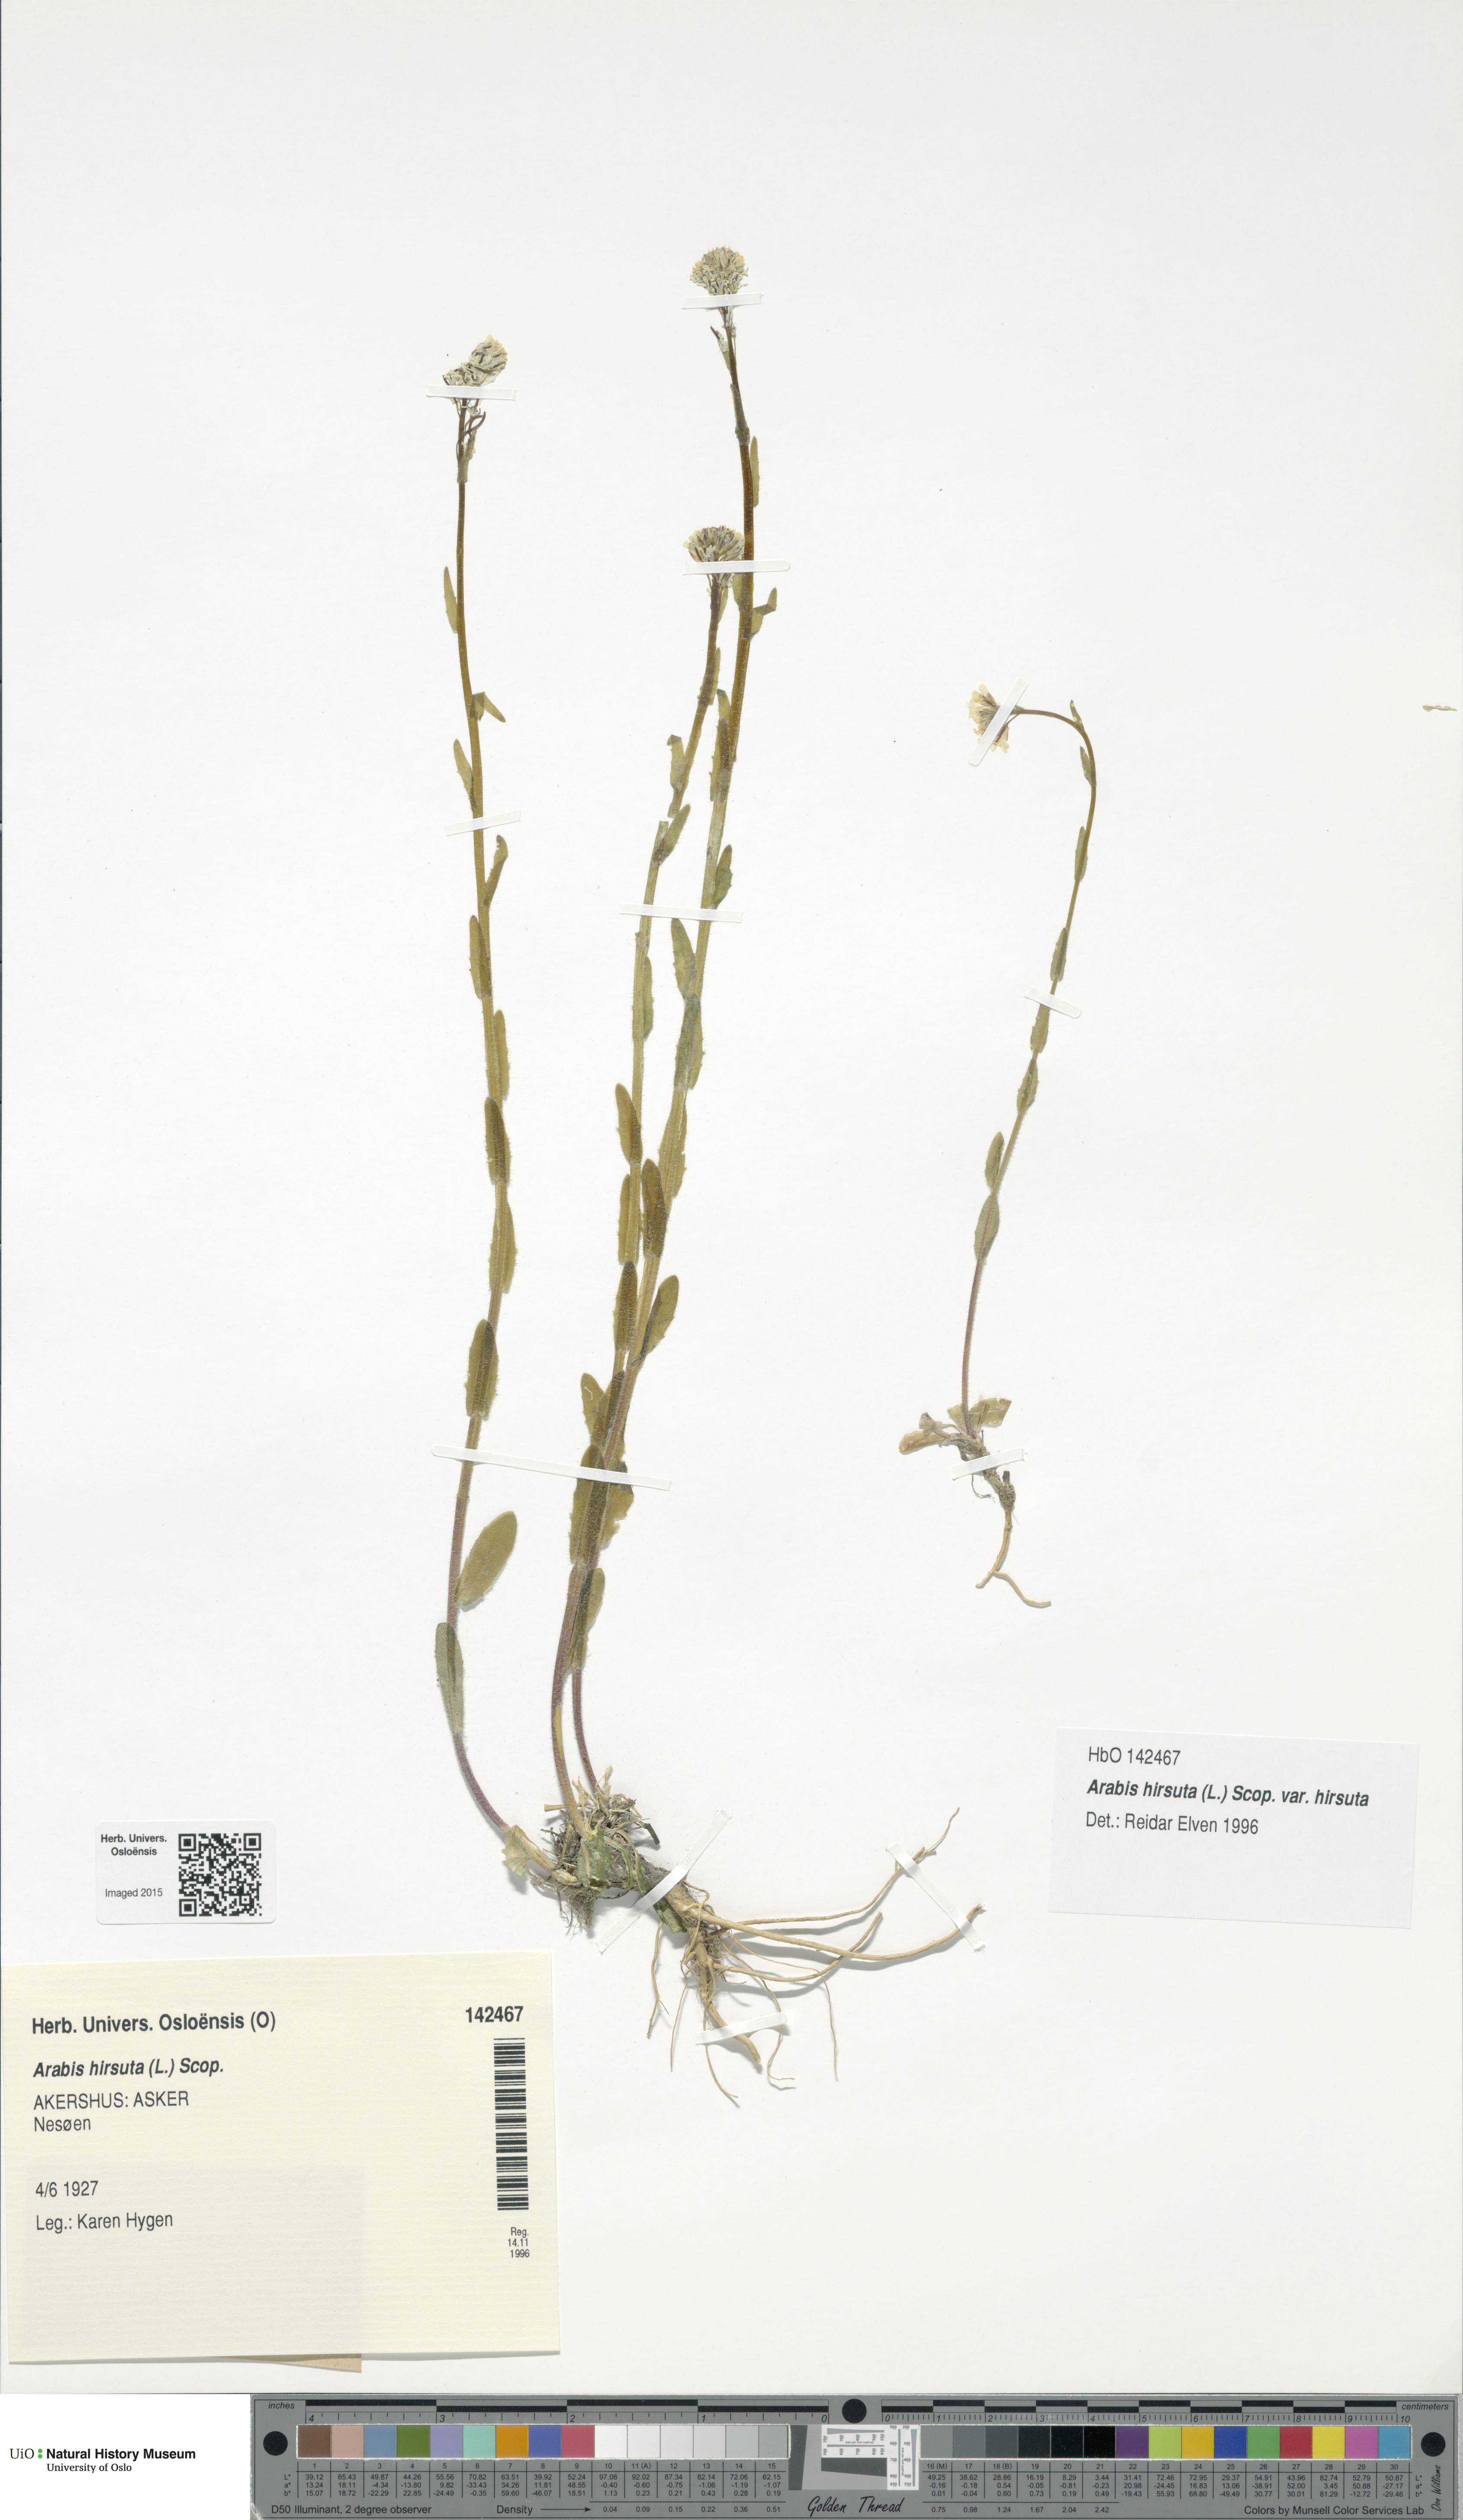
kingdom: Plantae
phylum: Tracheophyta
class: Magnoliopsida
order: Brassicales
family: Brassicaceae
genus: Arabis
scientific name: Arabis hirsuta
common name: Hairy rock-cress
